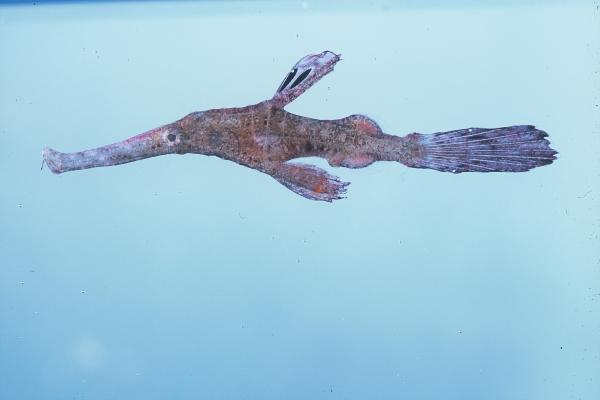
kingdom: Animalia
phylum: Chordata
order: Syngnathiformes
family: Solenostomidae
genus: Solenostomus
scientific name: Solenostomus cyanopterus
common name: Blue-finned ghost pipefish
